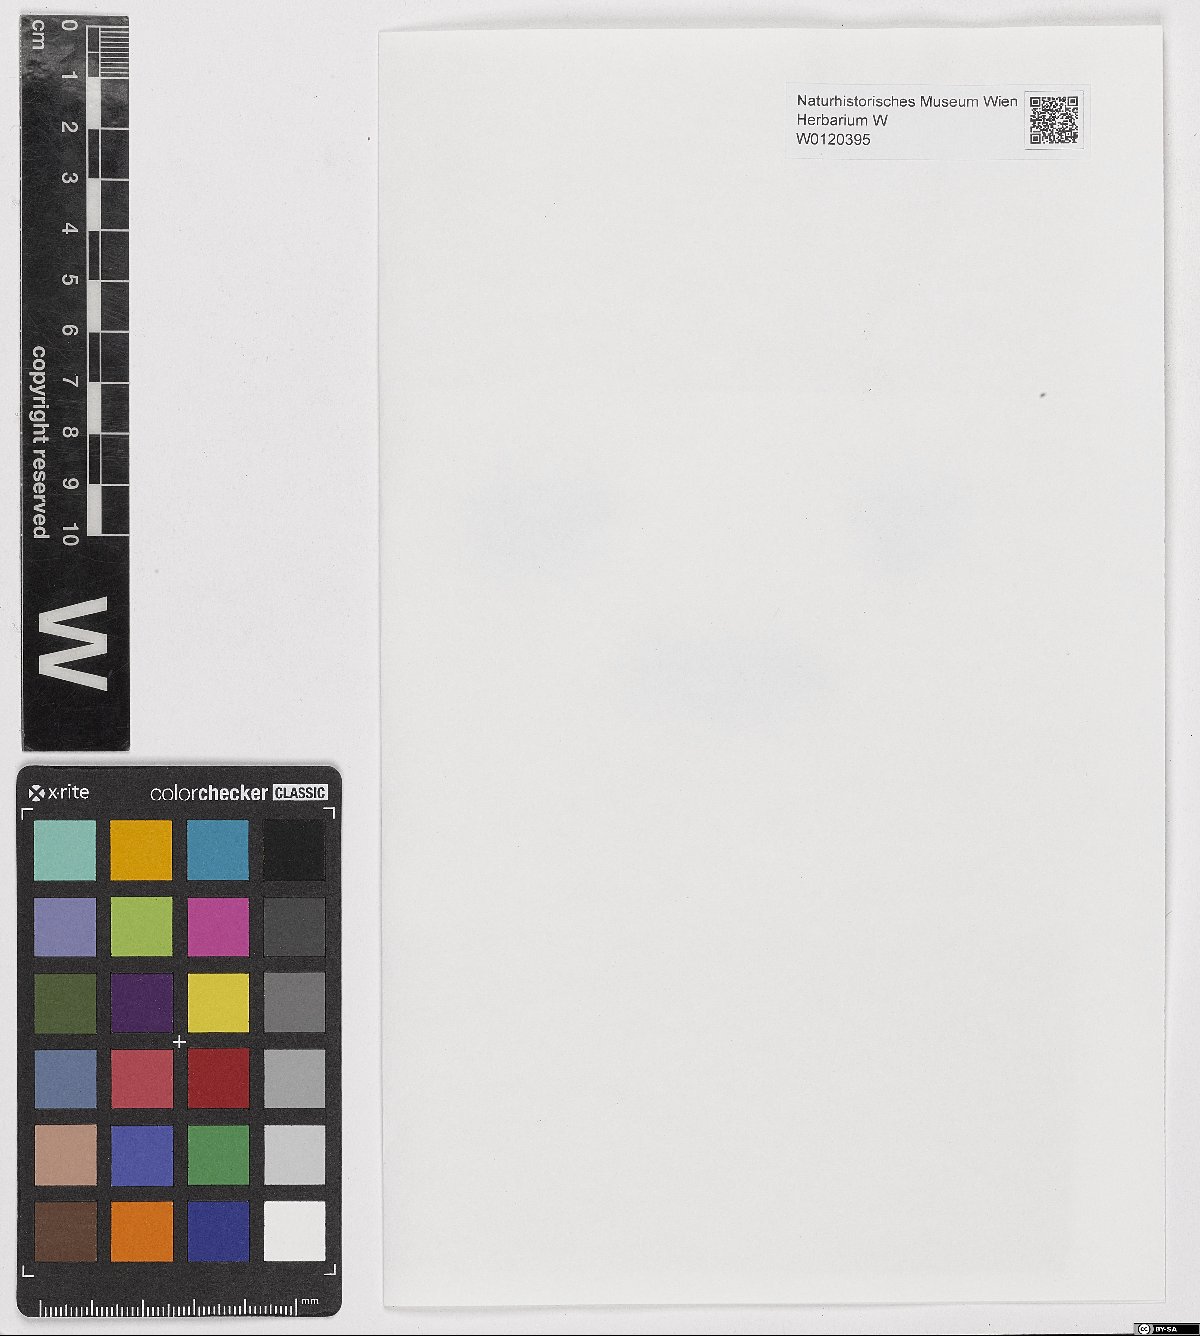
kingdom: Plantae
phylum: Bryophyta
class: Bryopsida
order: Hypnales
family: Plagiotheciaceae
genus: Isopterygiella
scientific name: Isopterygiella pulchella
